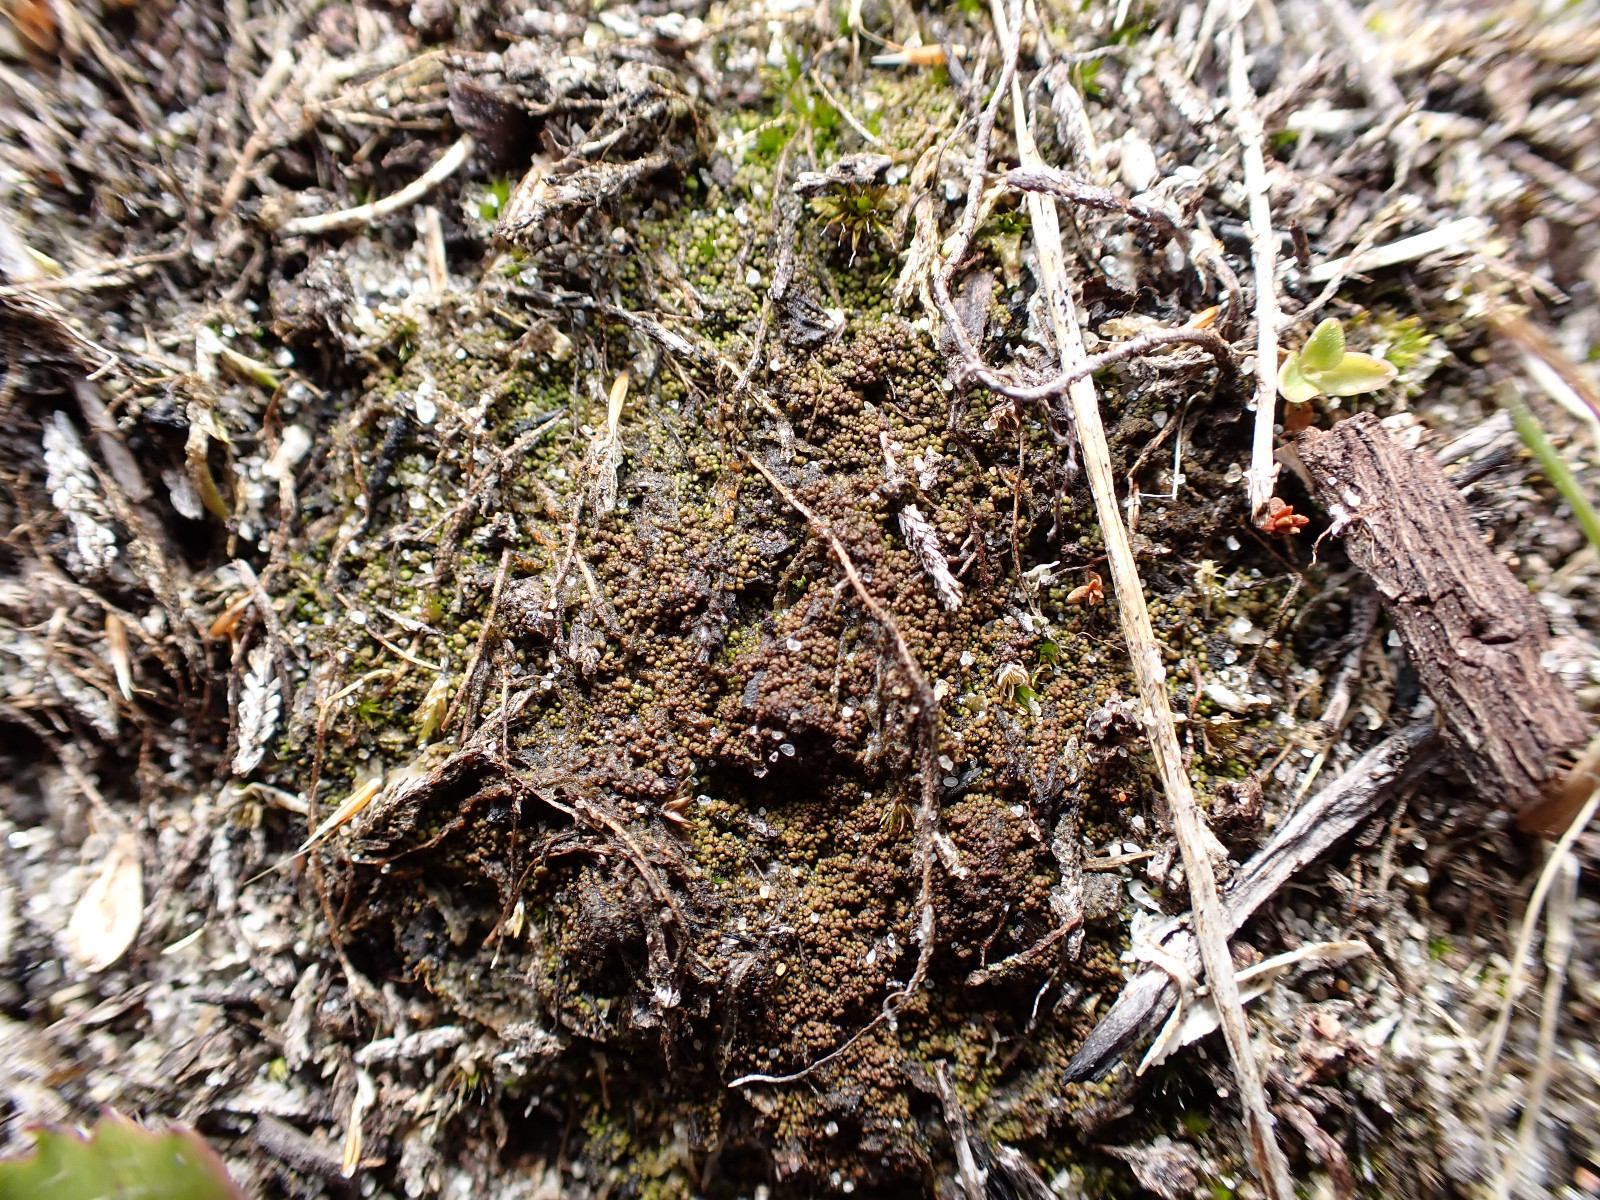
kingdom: Fungi
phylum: Ascomycota
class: Lecanoromycetes
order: Baeomycetales
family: Trapeliaceae
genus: Placynthiella
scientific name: Placynthiella oligotropha
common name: vorte-skivelav
